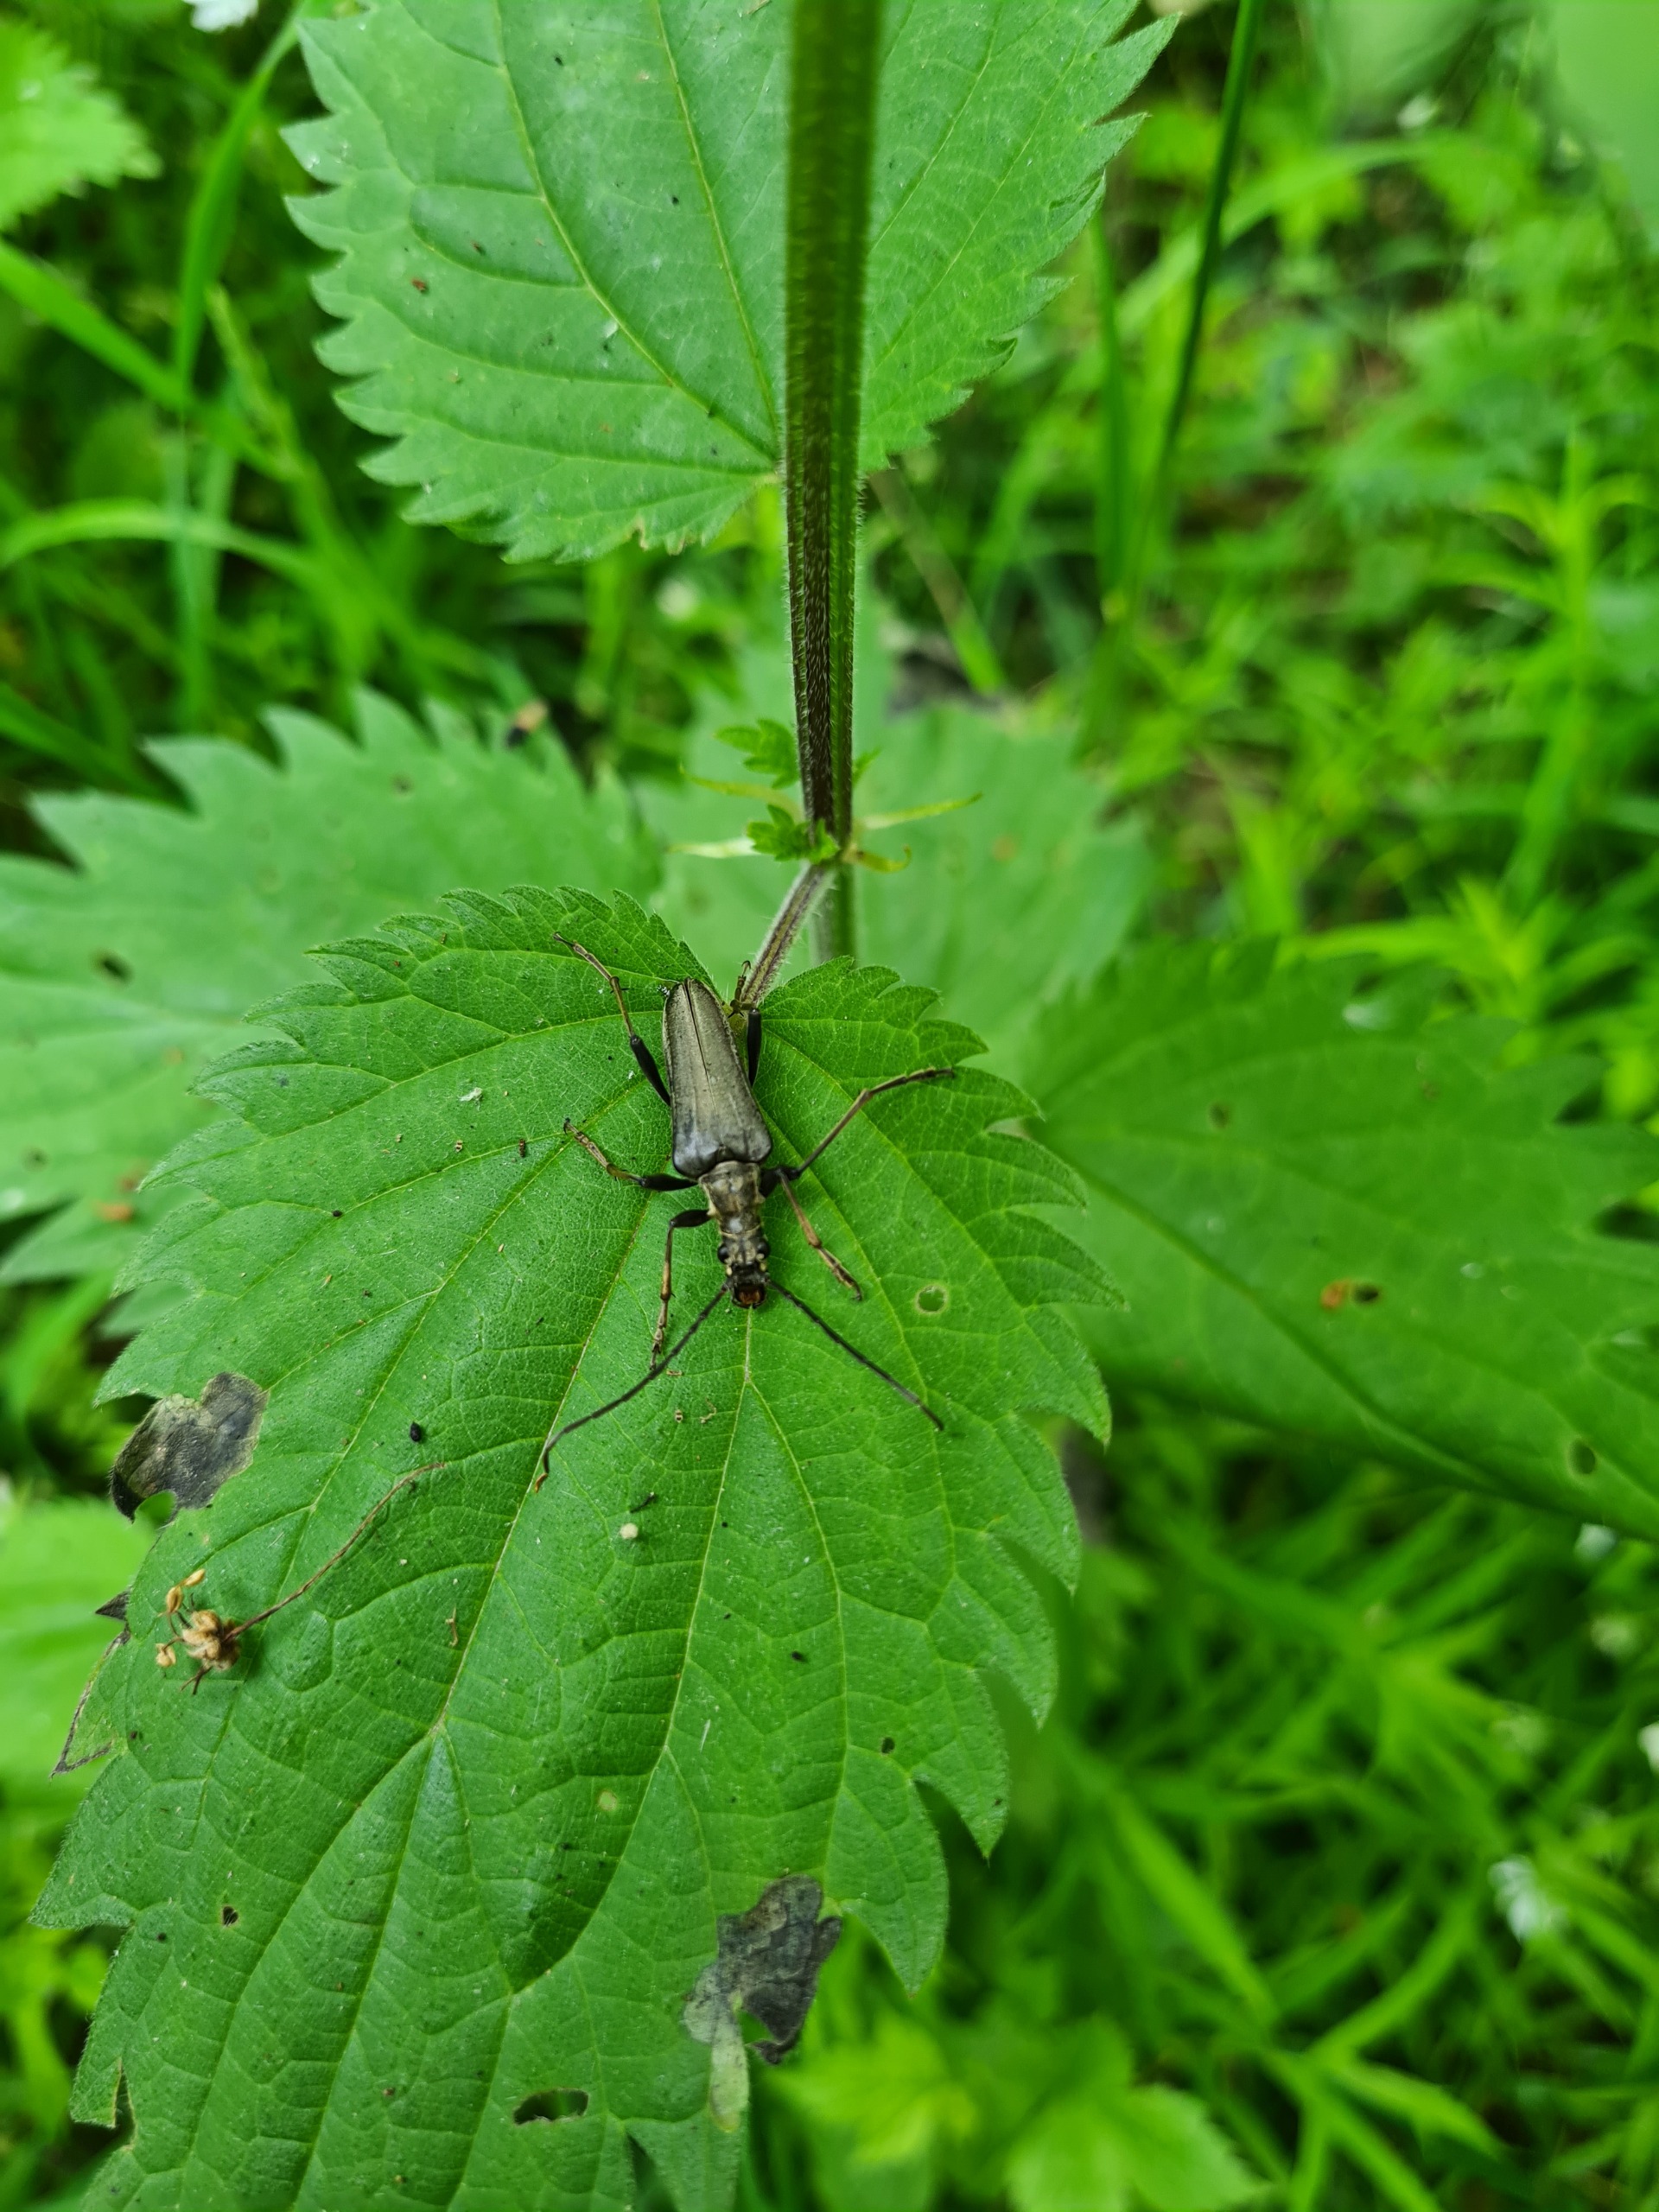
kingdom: Animalia
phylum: Arthropoda
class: Insecta
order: Coleoptera
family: Cerambycidae
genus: Stenocorus
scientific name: Stenocorus meridianus
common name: Smalbuk
